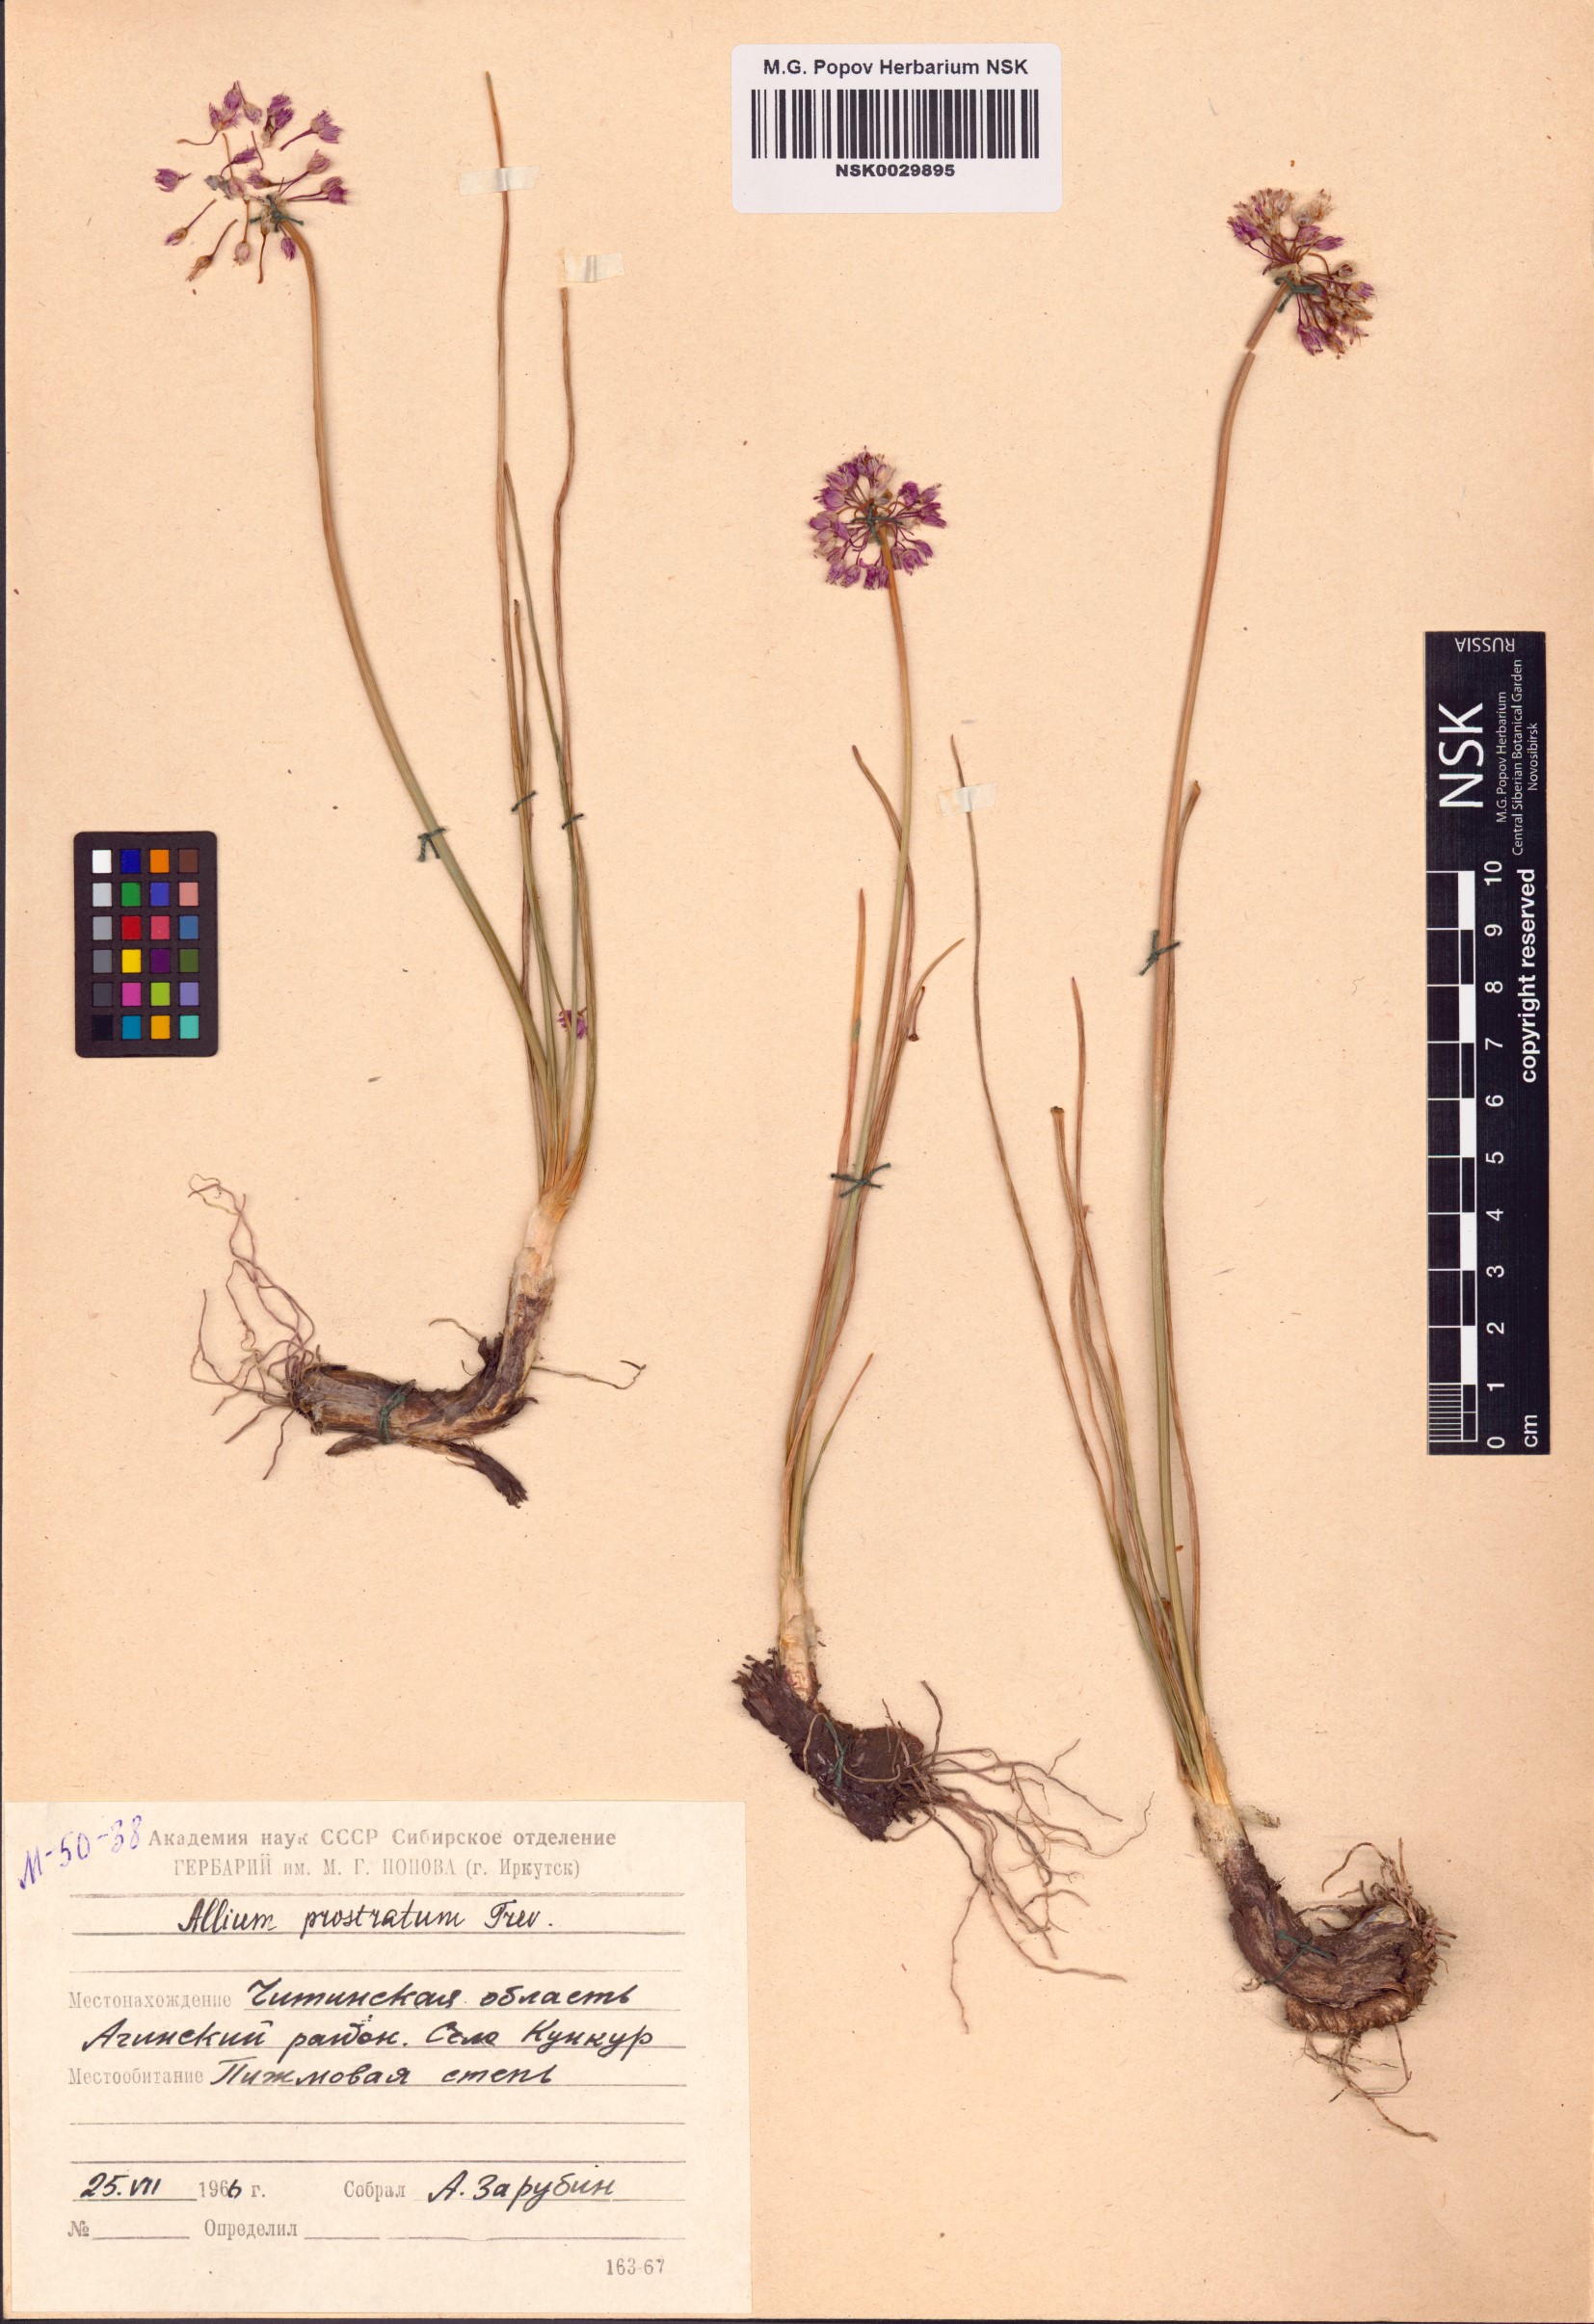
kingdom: Plantae
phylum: Tracheophyta
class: Liliopsida
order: Asparagales
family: Amaryllidaceae
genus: Allium
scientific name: Allium prostratum
